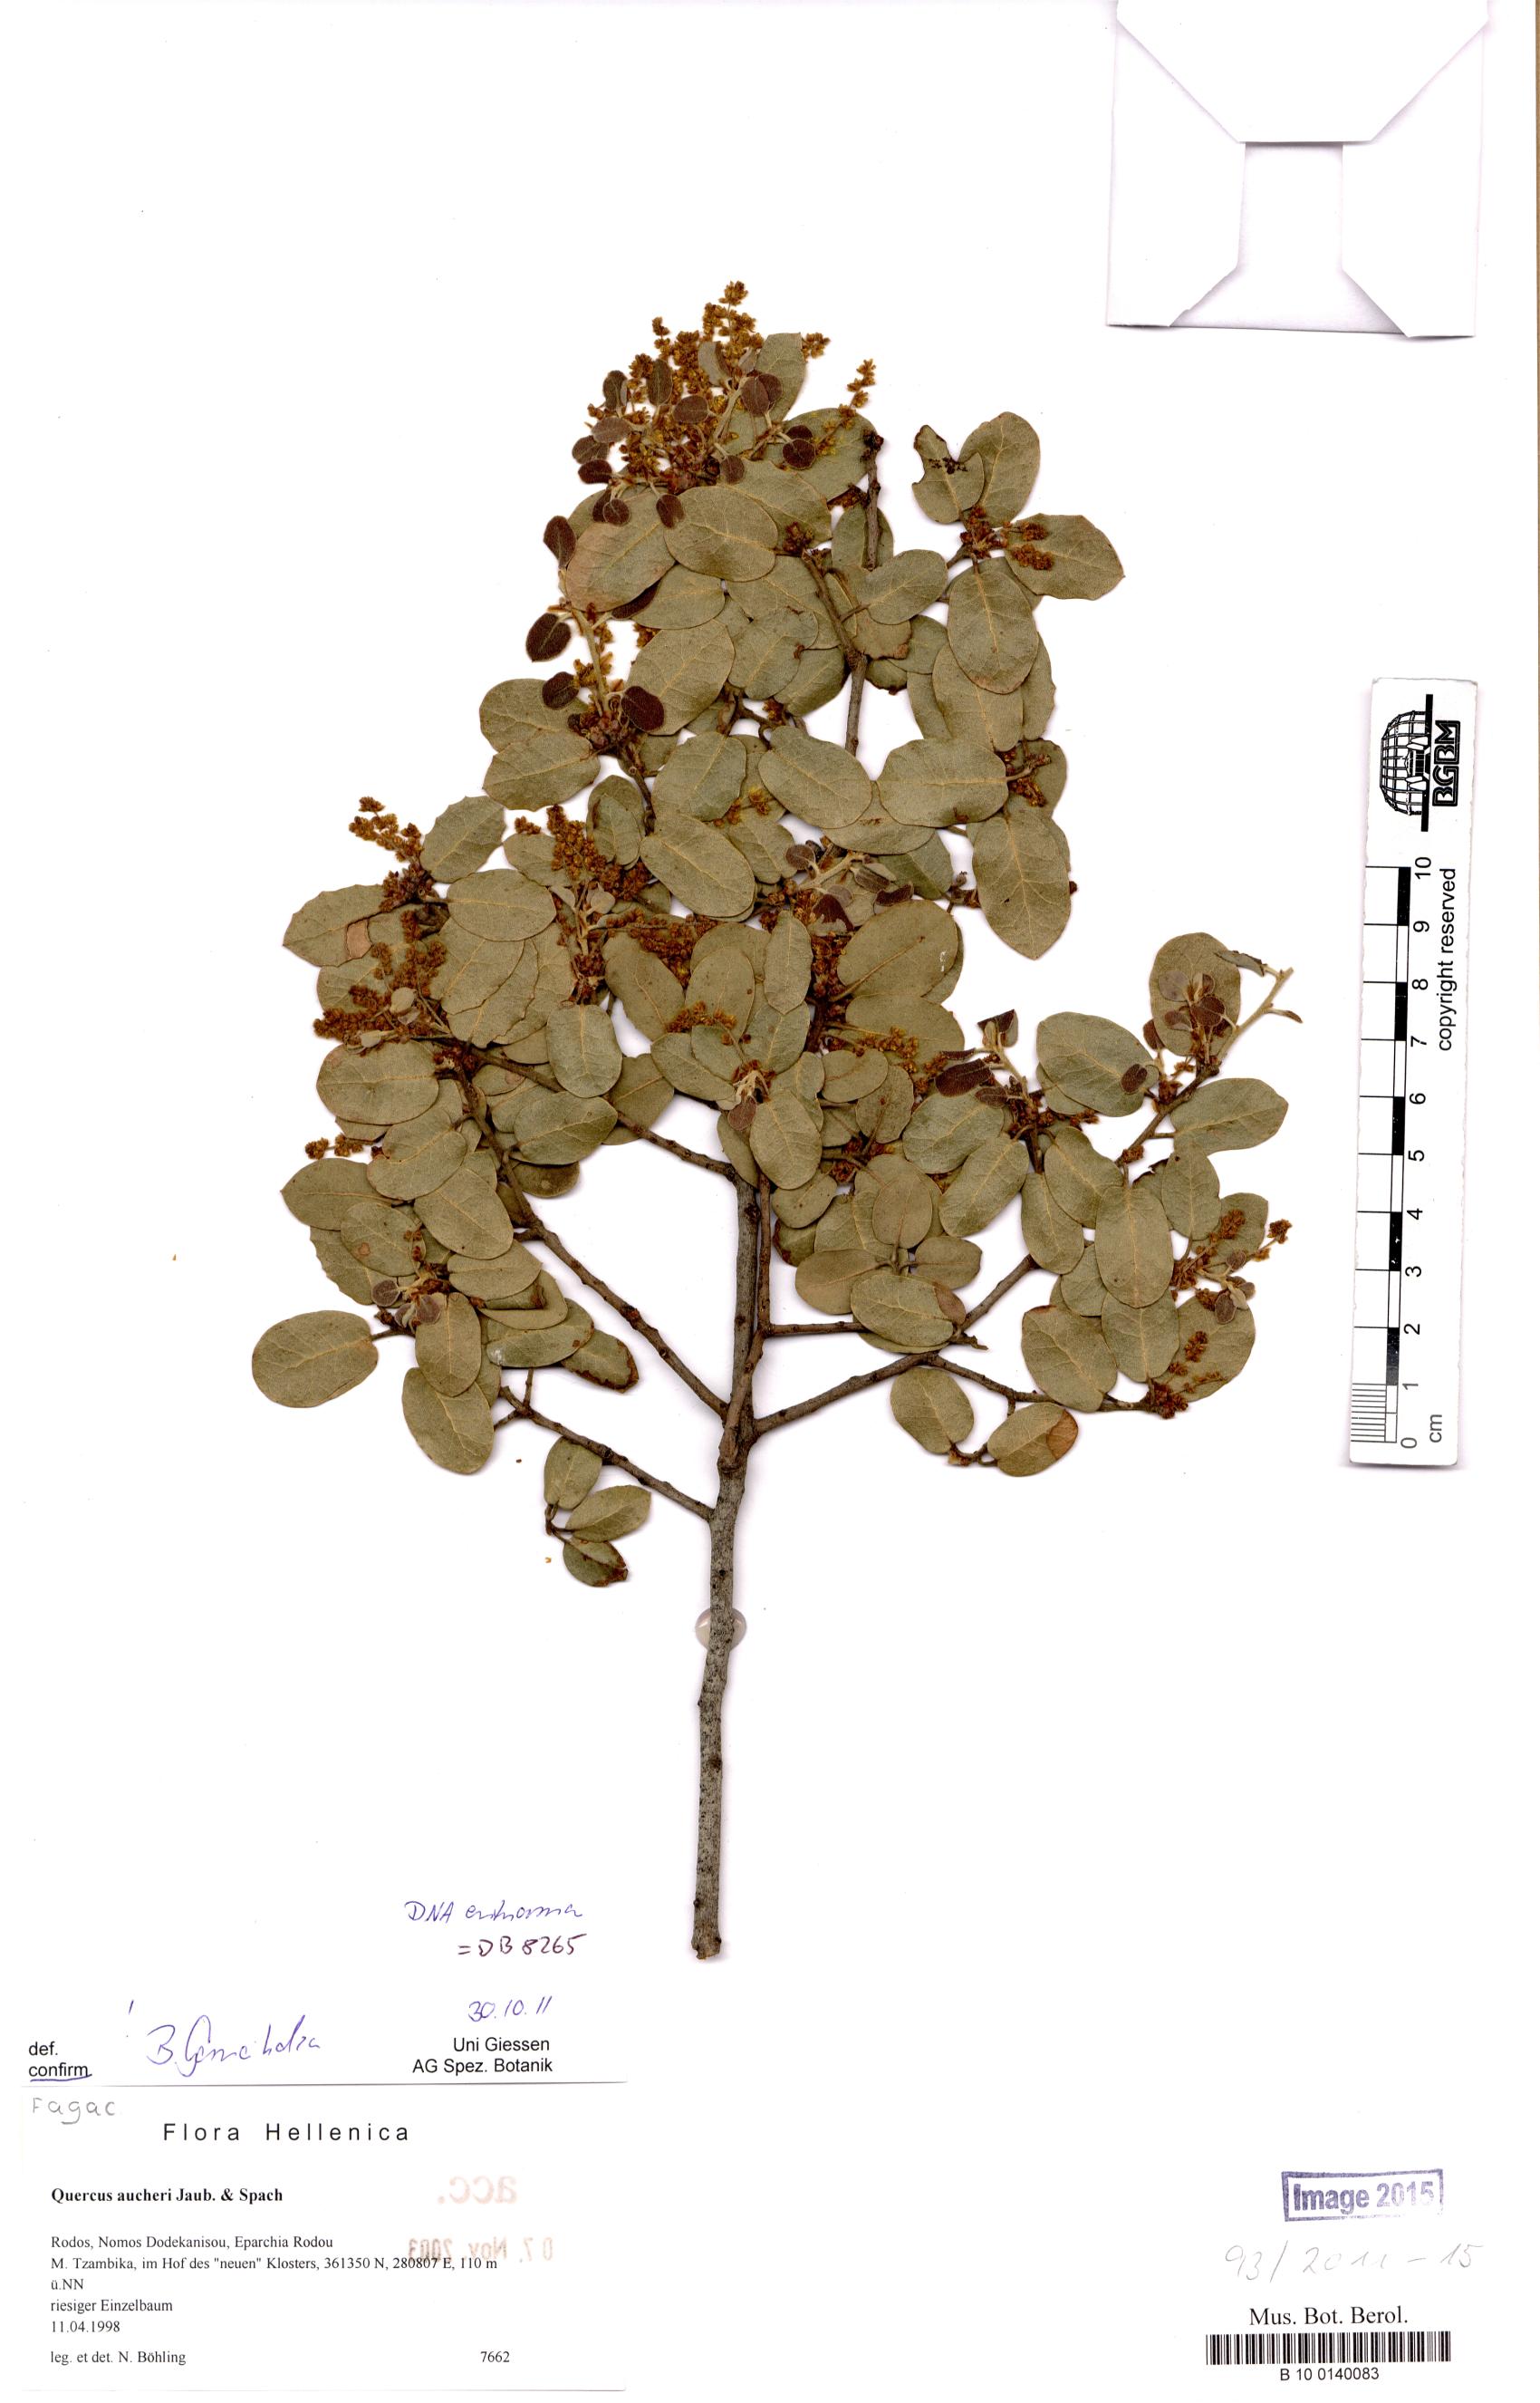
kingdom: Plantae
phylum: Tracheophyta
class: Magnoliopsida
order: Fagales
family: Fagaceae
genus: Quercus
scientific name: Quercus aucheri
